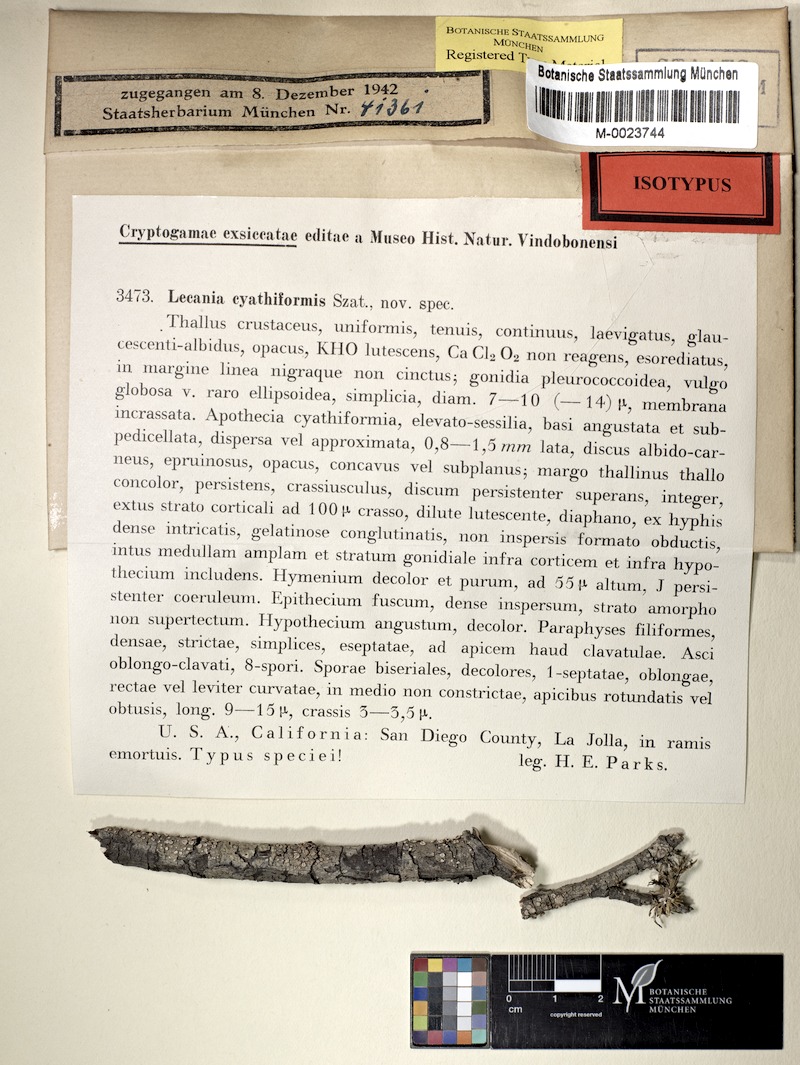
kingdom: Fungi
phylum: Ascomycota
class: Lecanoromycetes
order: Lecanorales
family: Catillariaceae
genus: Solenopsora
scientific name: Solenopsora cyathiformis
